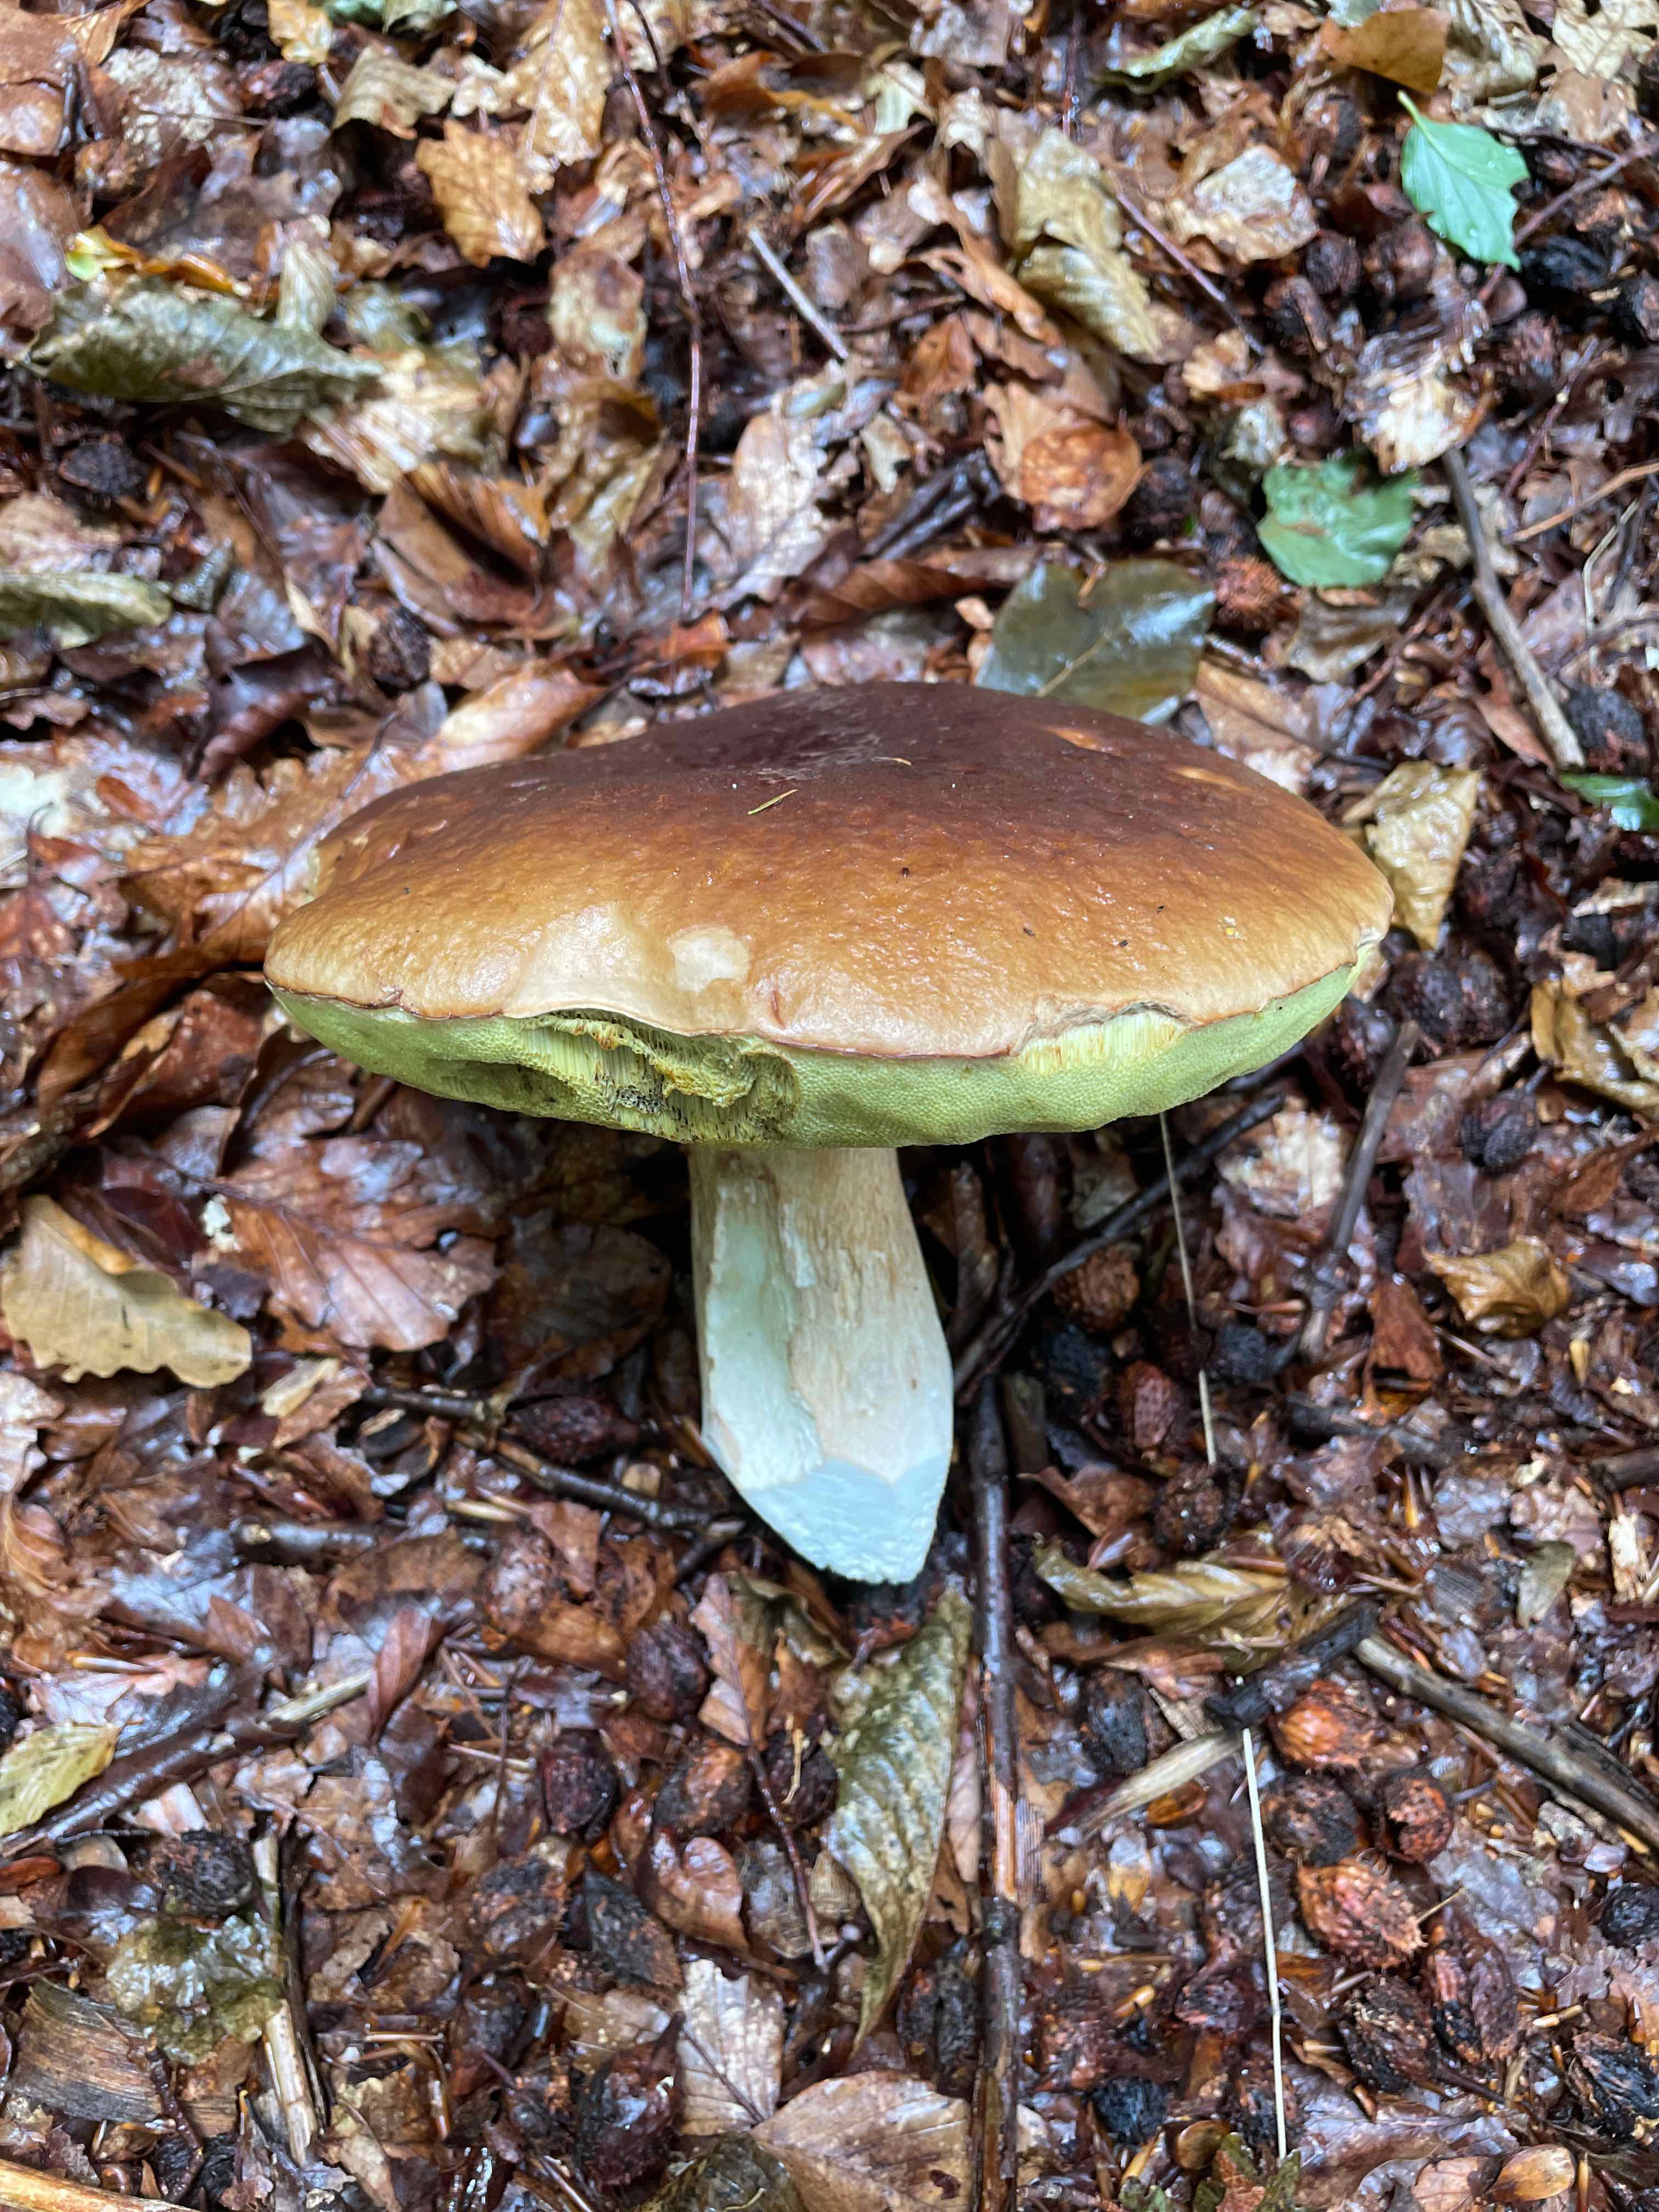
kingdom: Fungi
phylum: Basidiomycota
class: Agaricomycetes
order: Boletales
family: Boletaceae
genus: Boletus
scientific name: Boletus edulis
